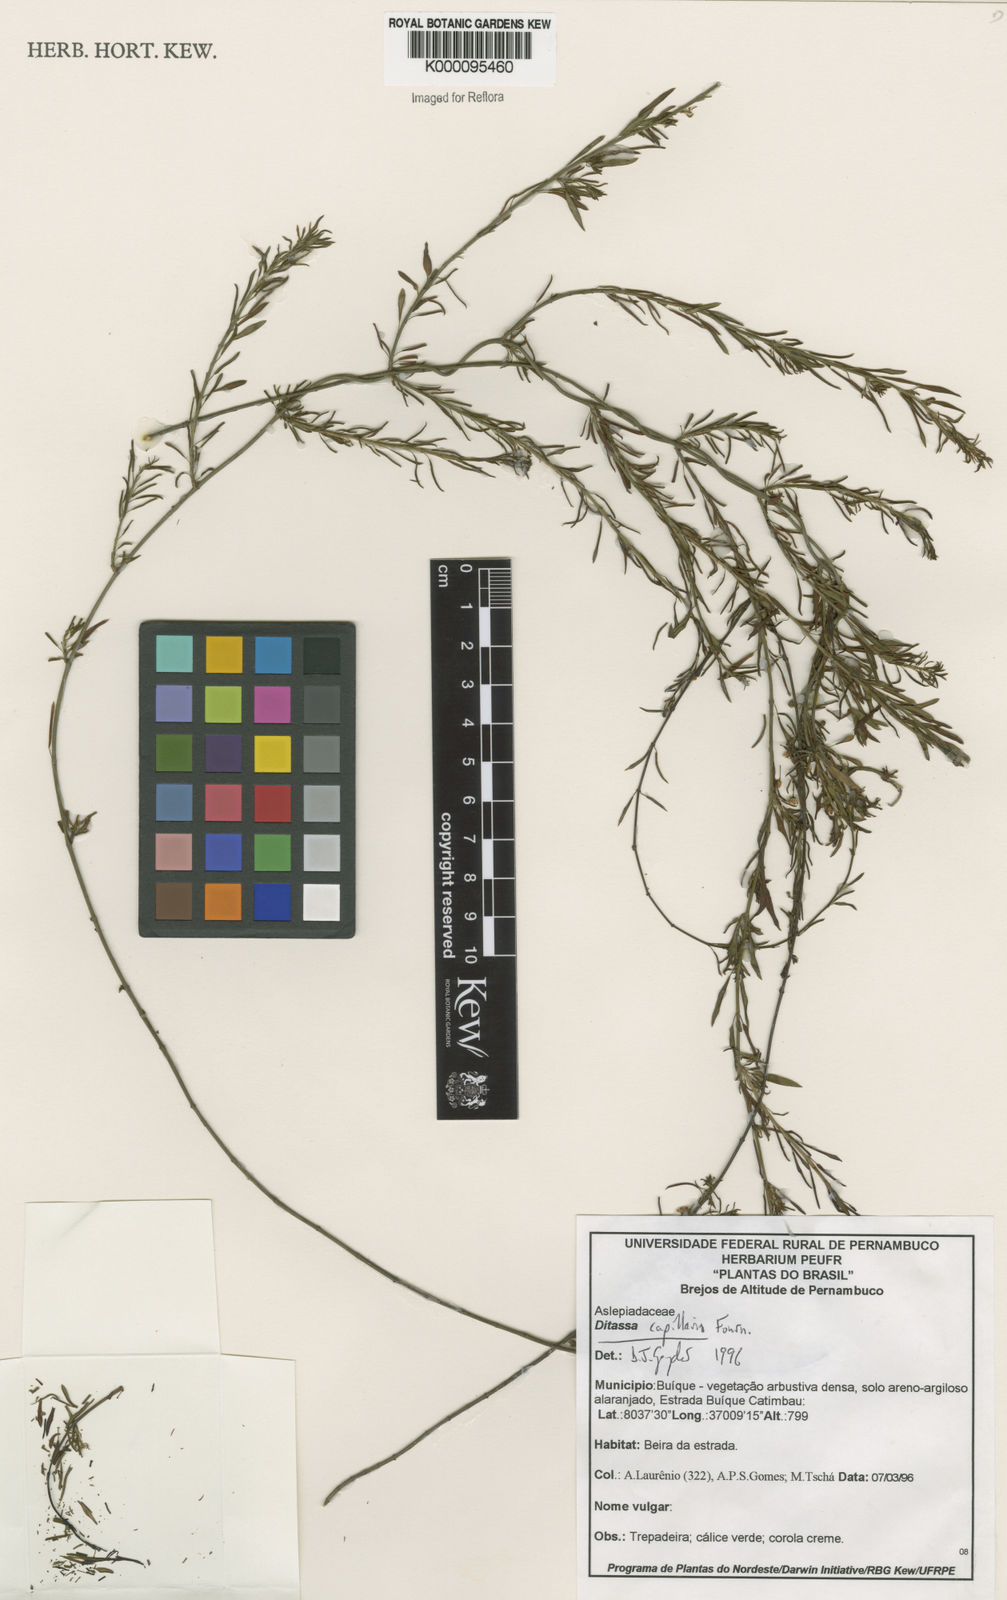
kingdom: Plantae
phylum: Tracheophyta
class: Magnoliopsida
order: Gentianales
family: Apocynaceae
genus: Ditassa
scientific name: Ditassa capillaris
